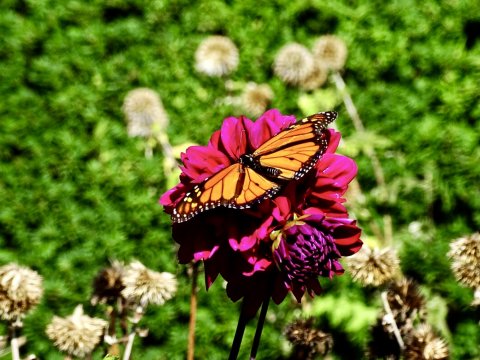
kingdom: Animalia
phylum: Arthropoda
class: Insecta
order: Lepidoptera
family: Nymphalidae
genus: Danaus
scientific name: Danaus plexippus
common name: Monarch
